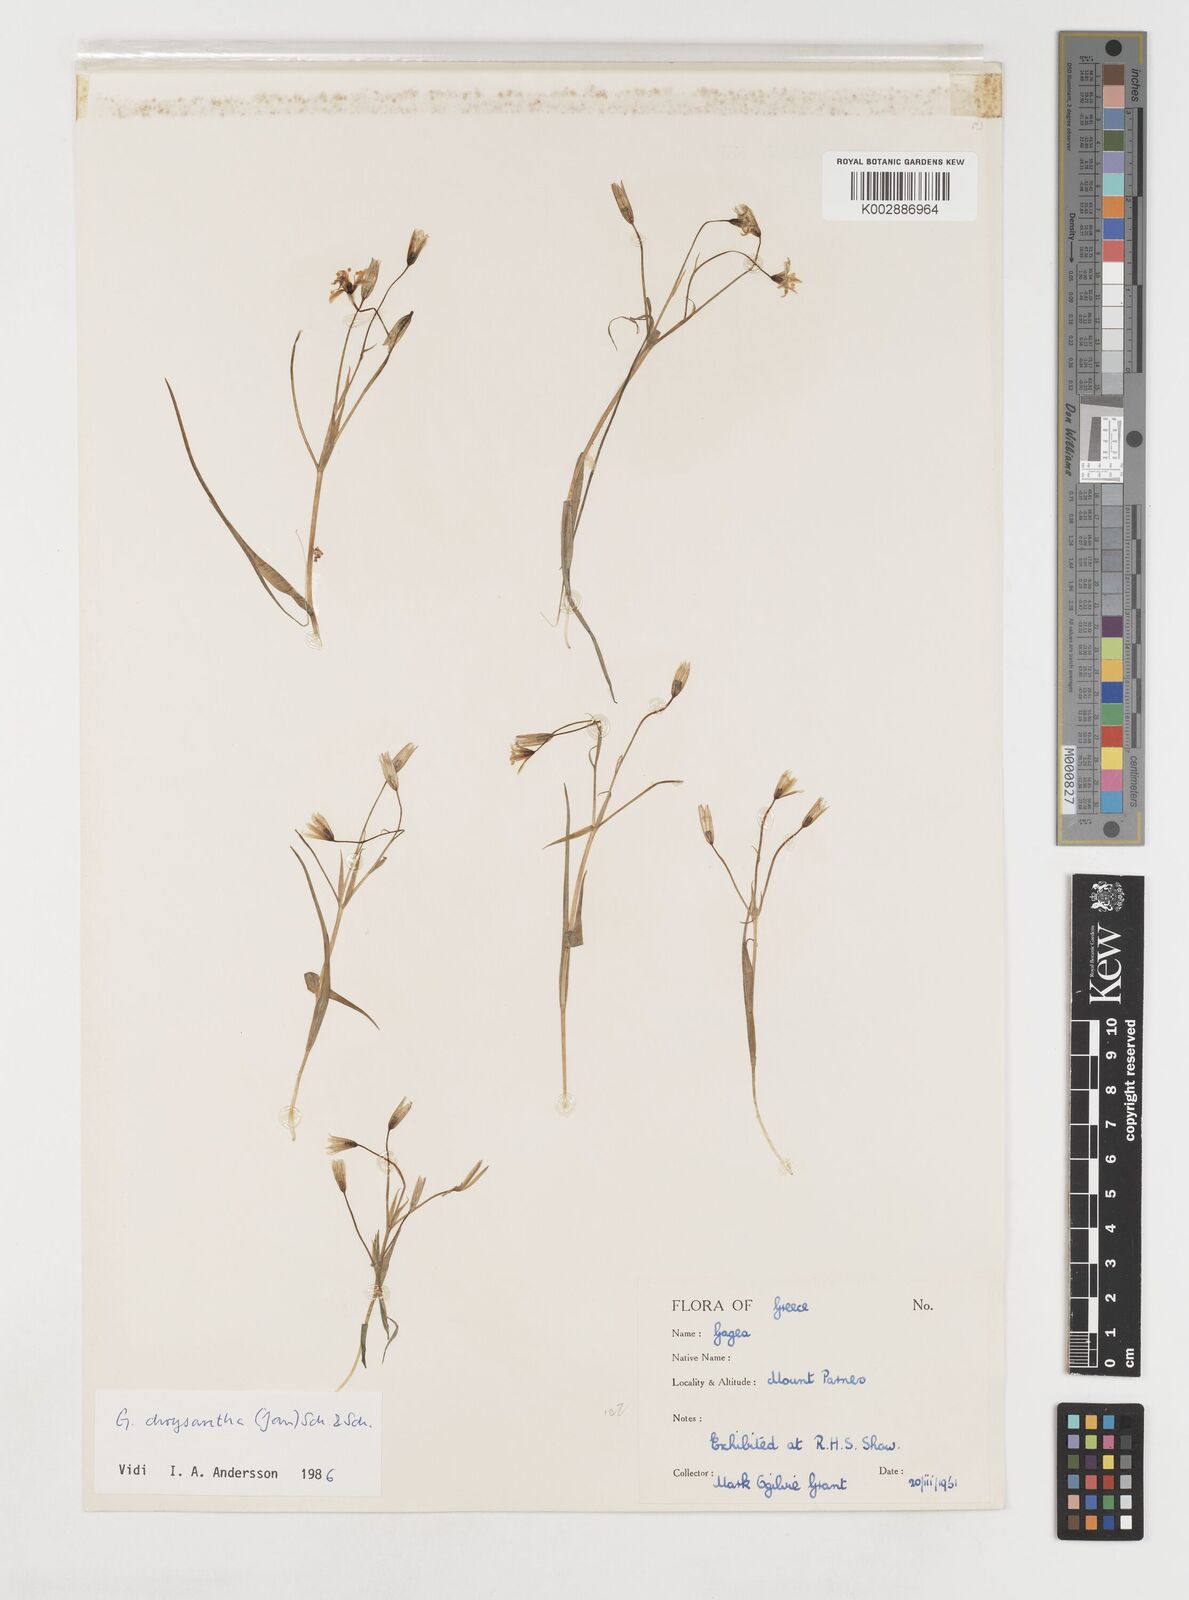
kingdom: Plantae
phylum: Tracheophyta
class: Liliopsida
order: Liliales
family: Liliaceae
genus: Gagea
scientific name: Gagea amblyopetala
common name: Blunt-flowered gagea
